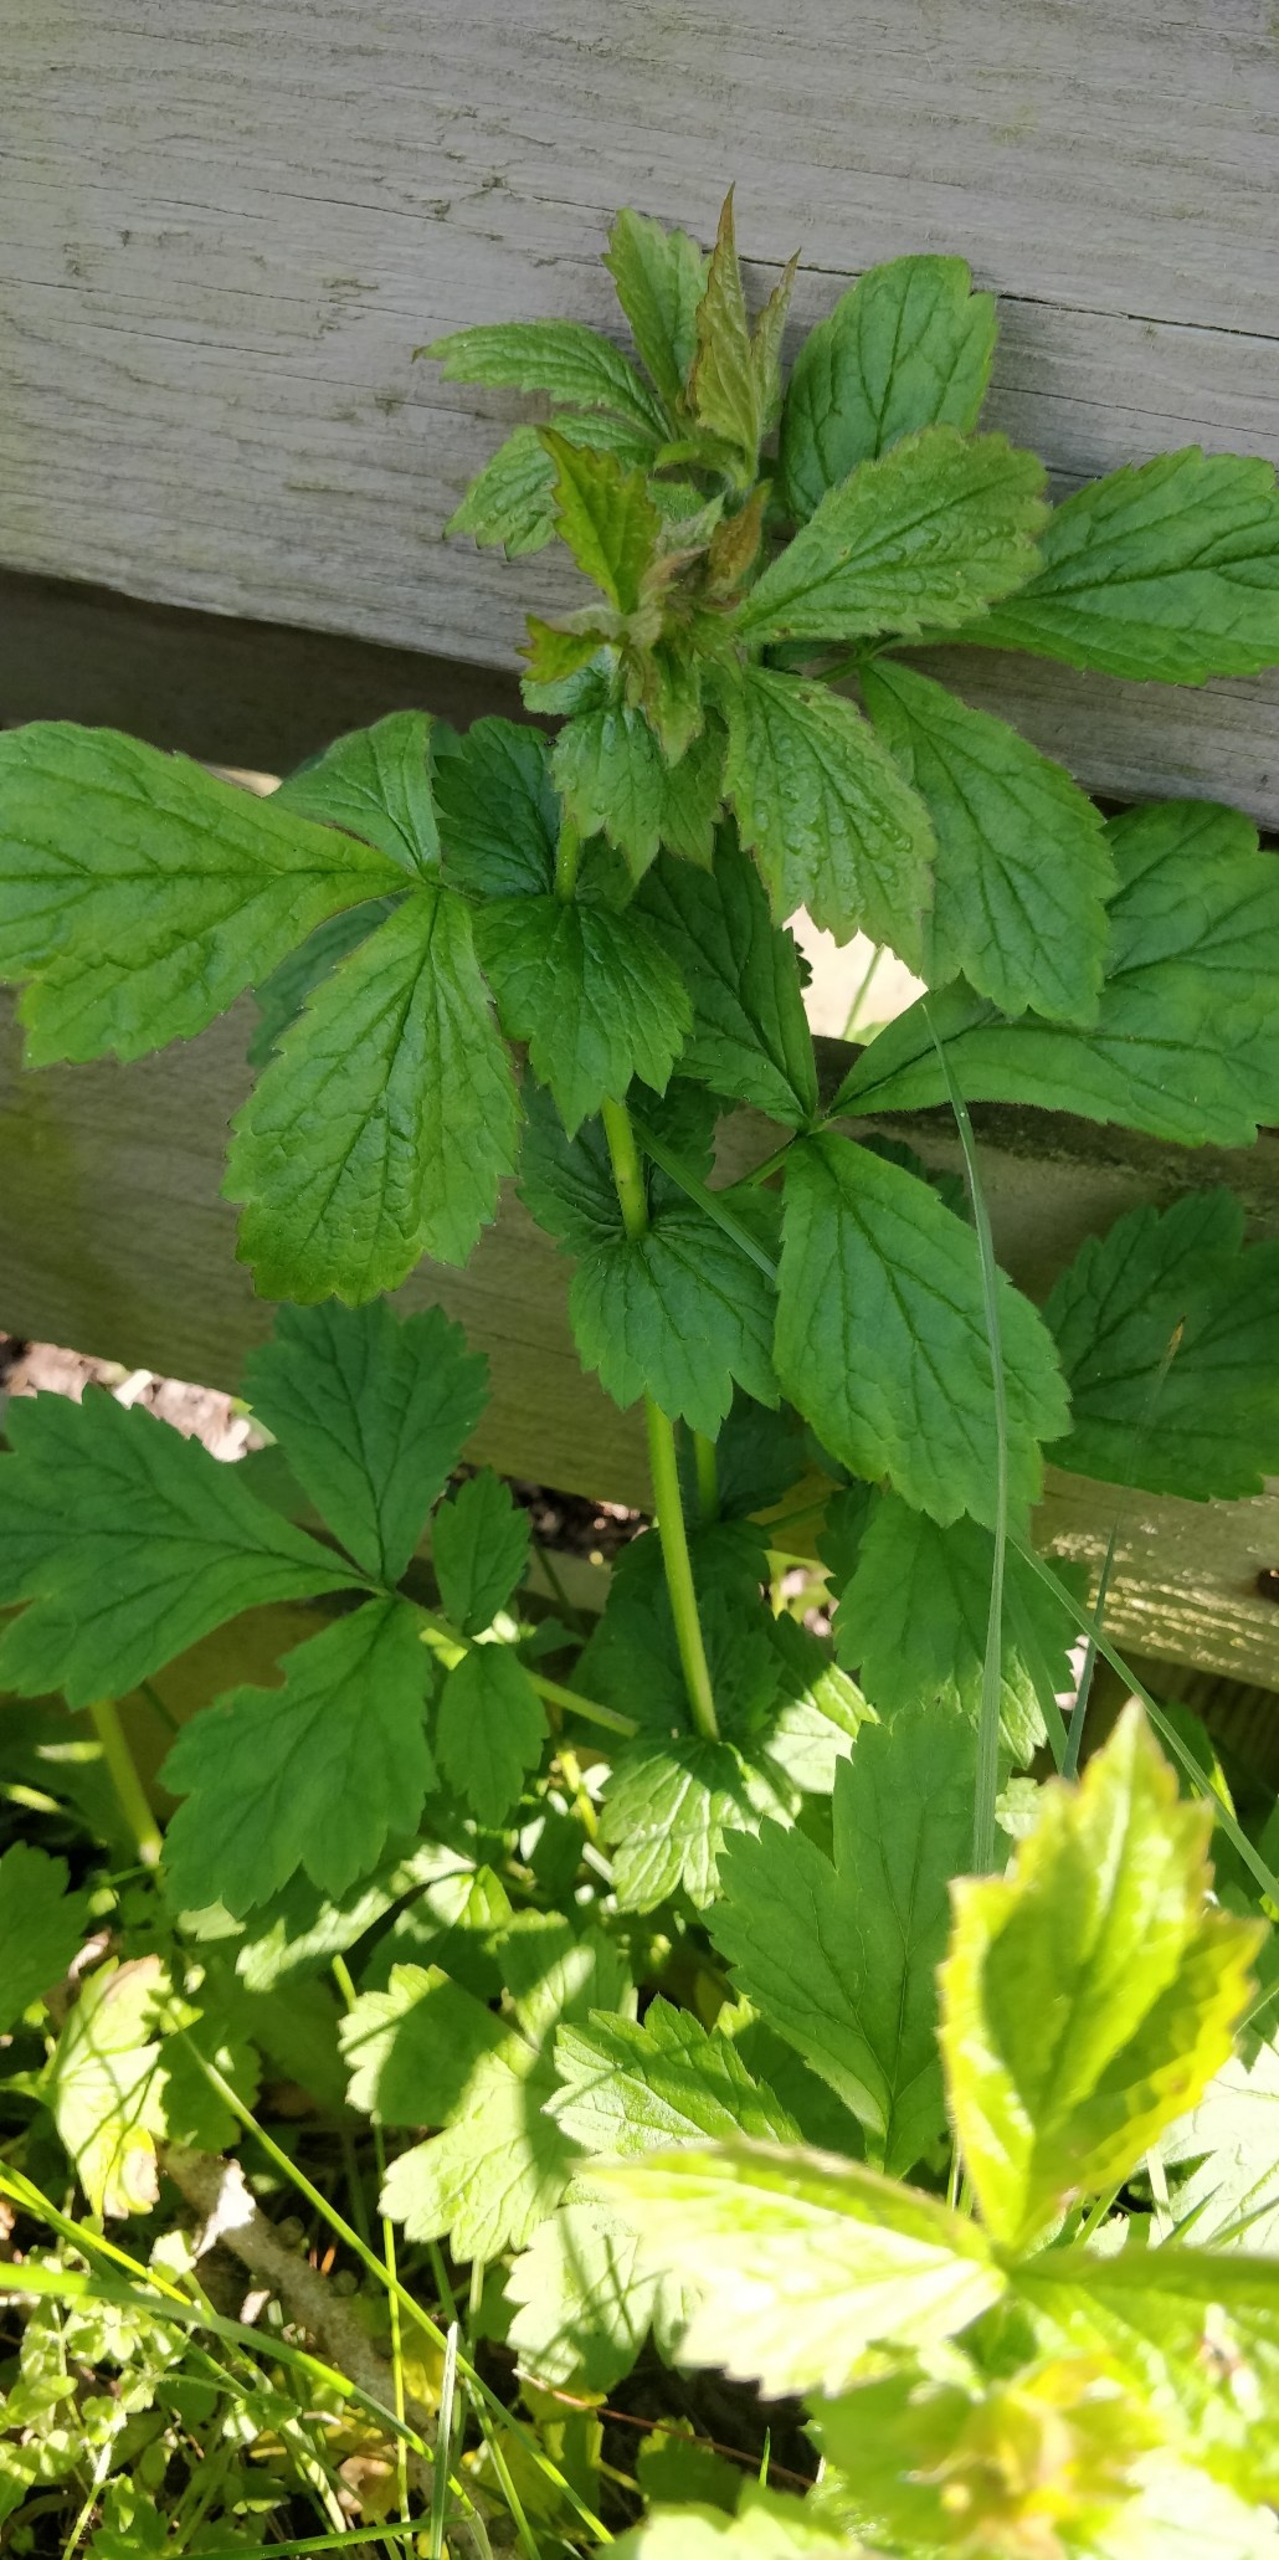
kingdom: Plantae
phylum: Tracheophyta
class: Magnoliopsida
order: Rosales
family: Rosaceae
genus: Geum
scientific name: Geum urbanum
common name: Feber-nellikerod
